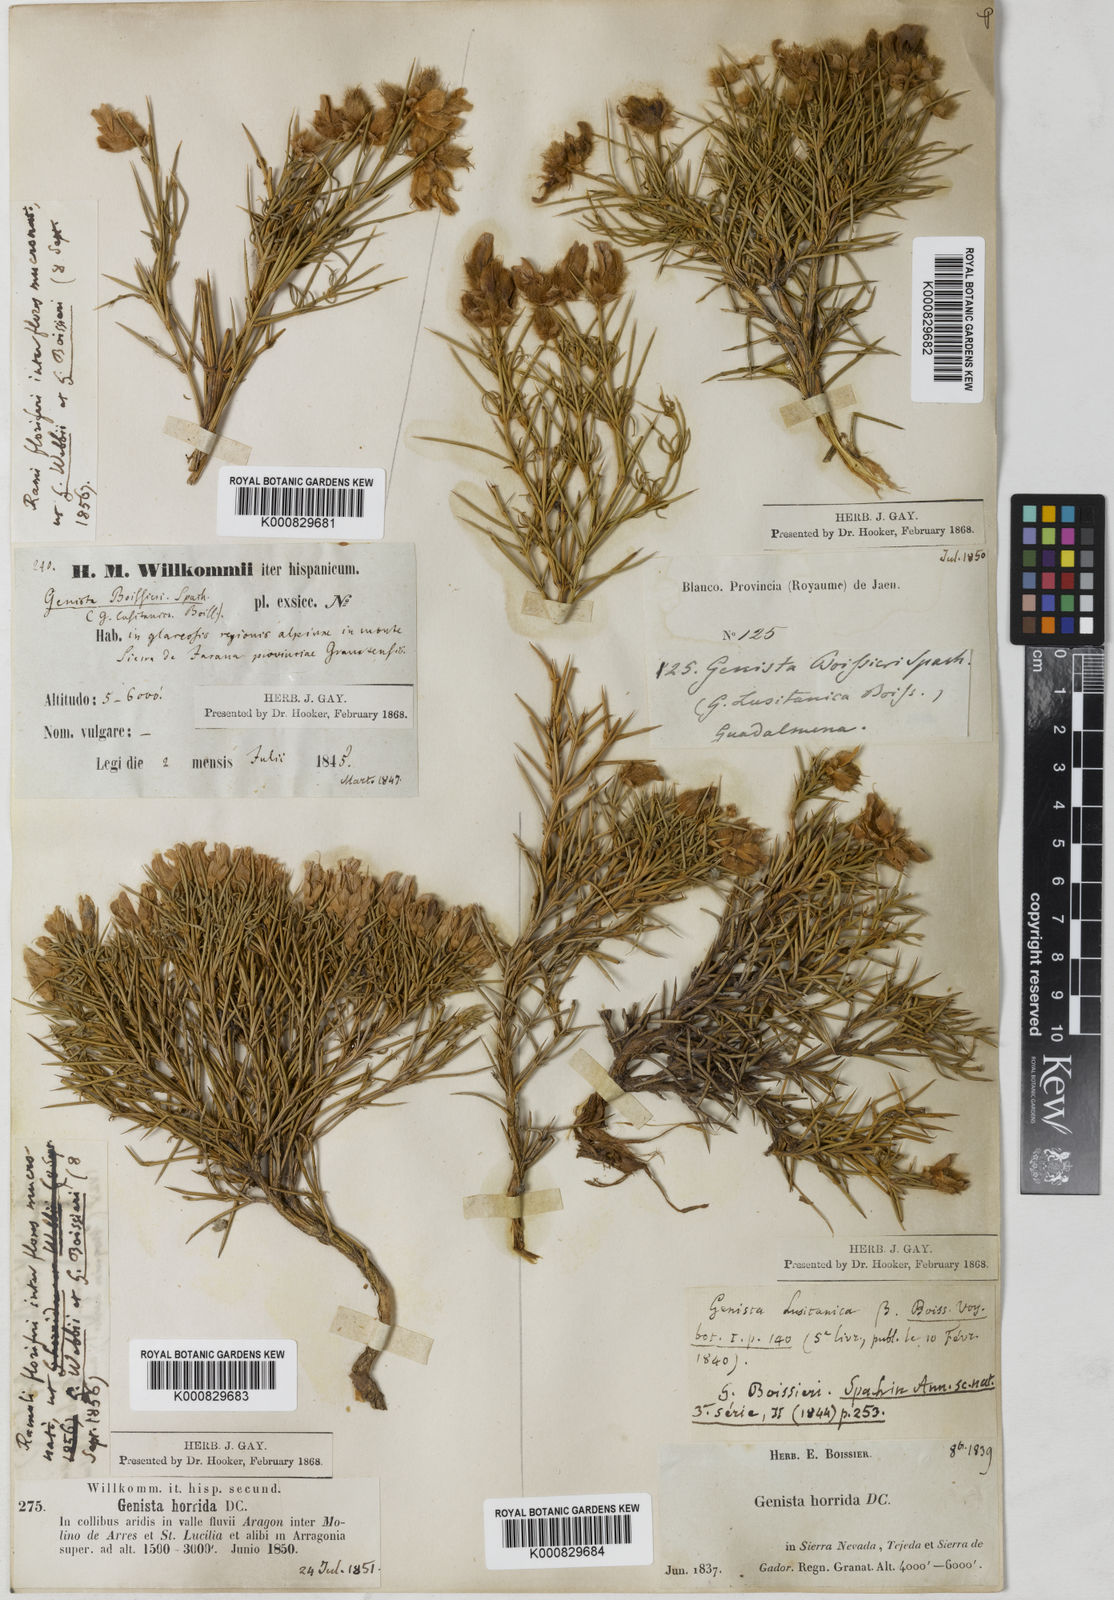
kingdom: Plantae
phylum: Tracheophyta
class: Magnoliopsida
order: Fabales
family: Fabaceae
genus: Echinospartum
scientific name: Echinospartum boissieri
